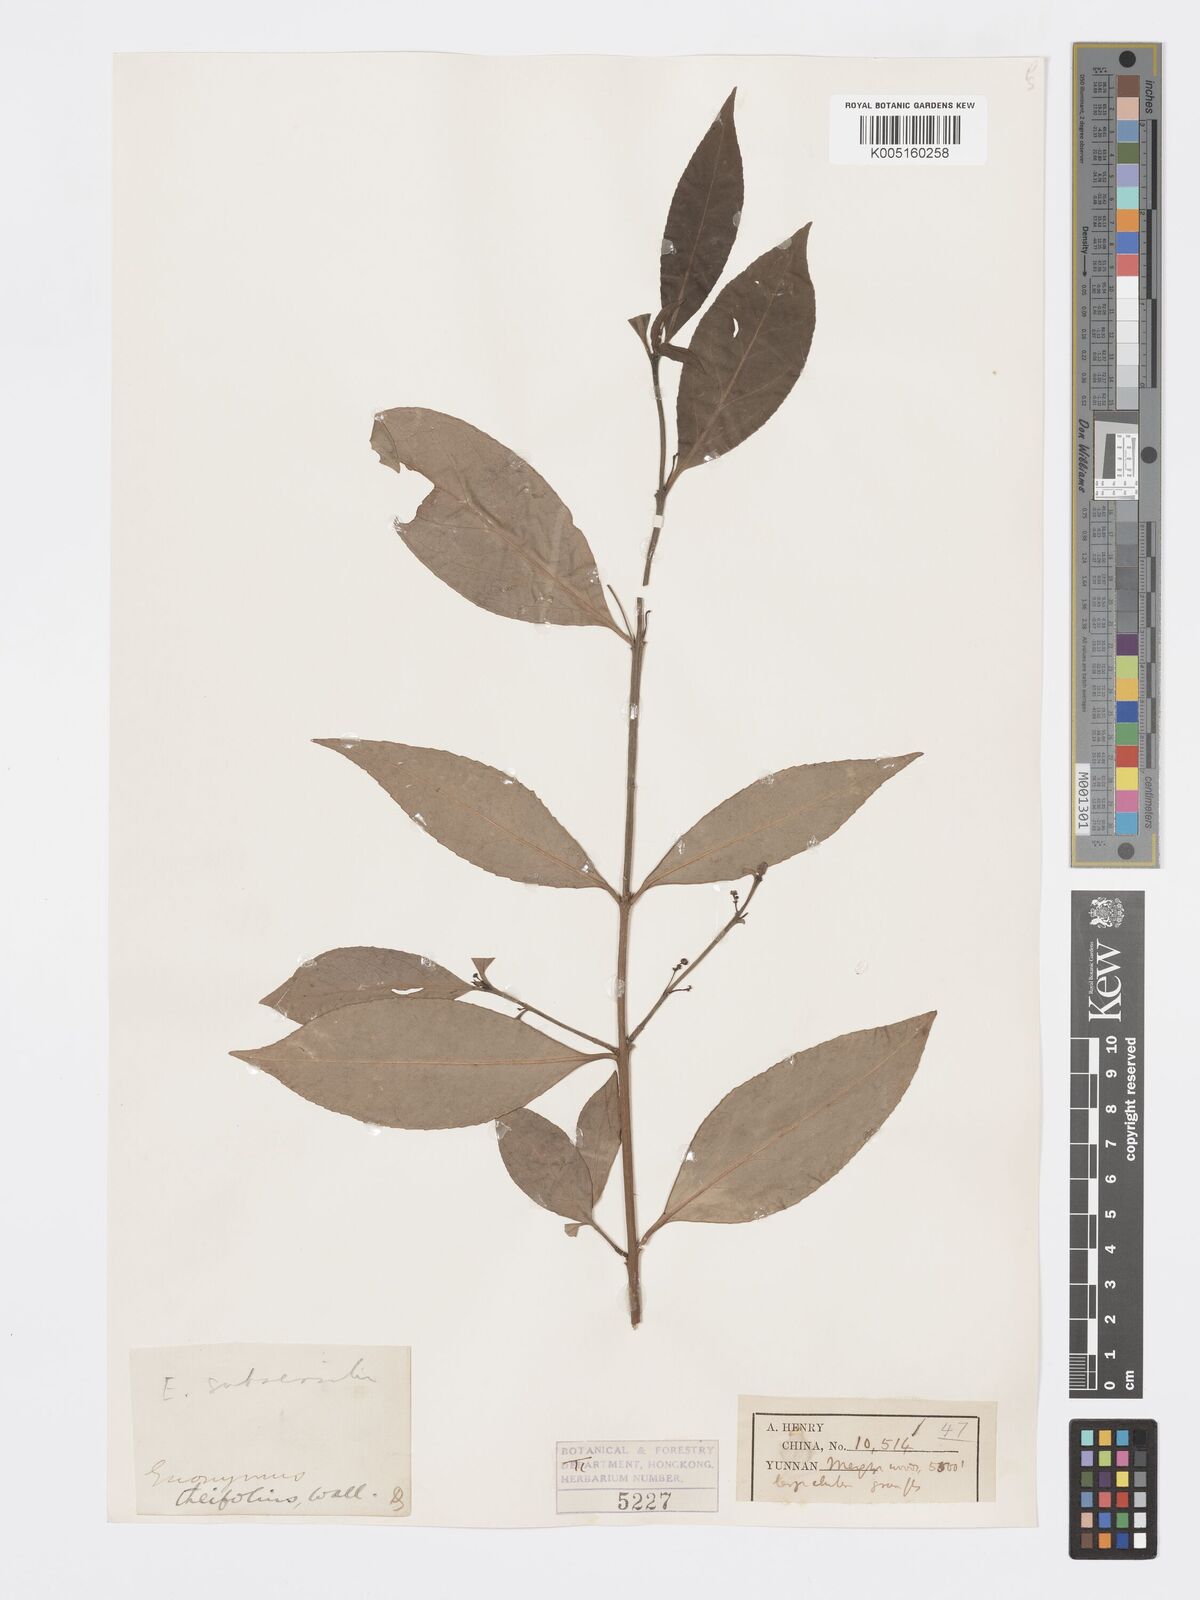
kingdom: Plantae
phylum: Tracheophyta
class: Magnoliopsida
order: Celastrales
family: Celastraceae
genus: Euonymus
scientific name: Euonymus
